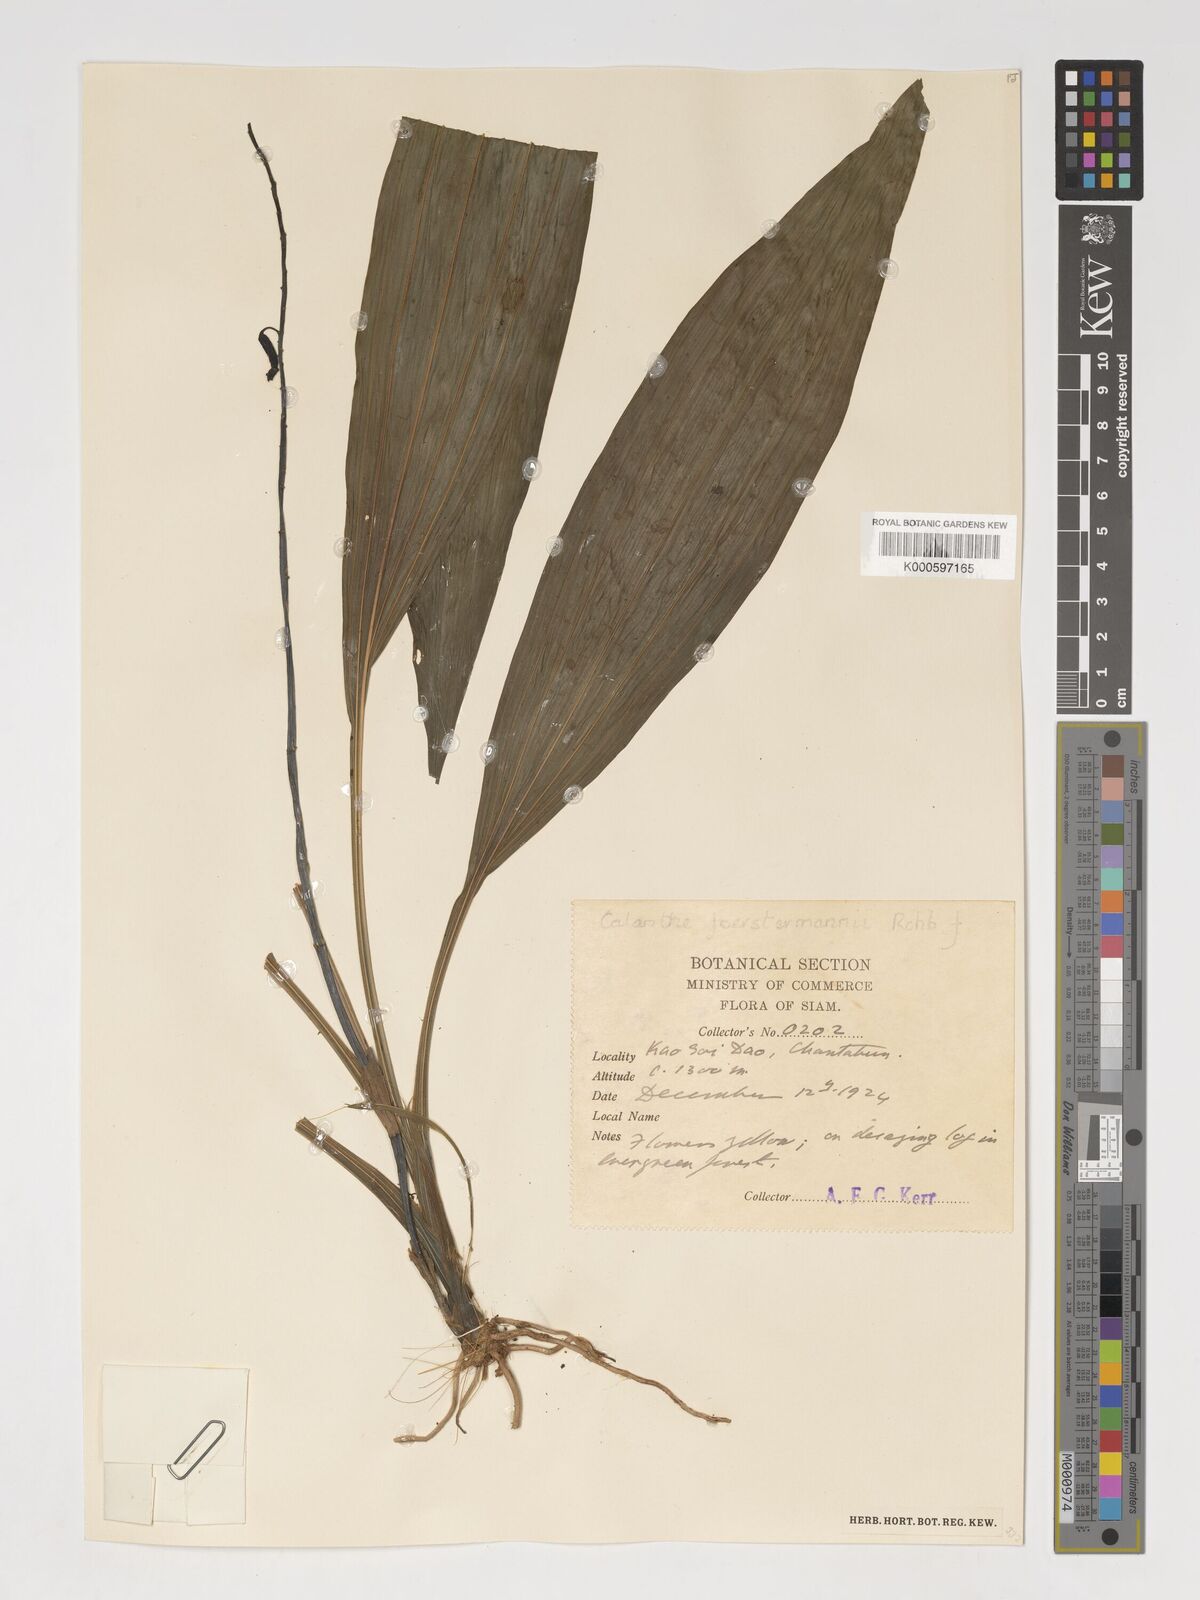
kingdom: Plantae
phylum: Tracheophyta
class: Liliopsida
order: Asparagales
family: Orchidaceae
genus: Calanthe
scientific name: Calanthe lyroglossa
